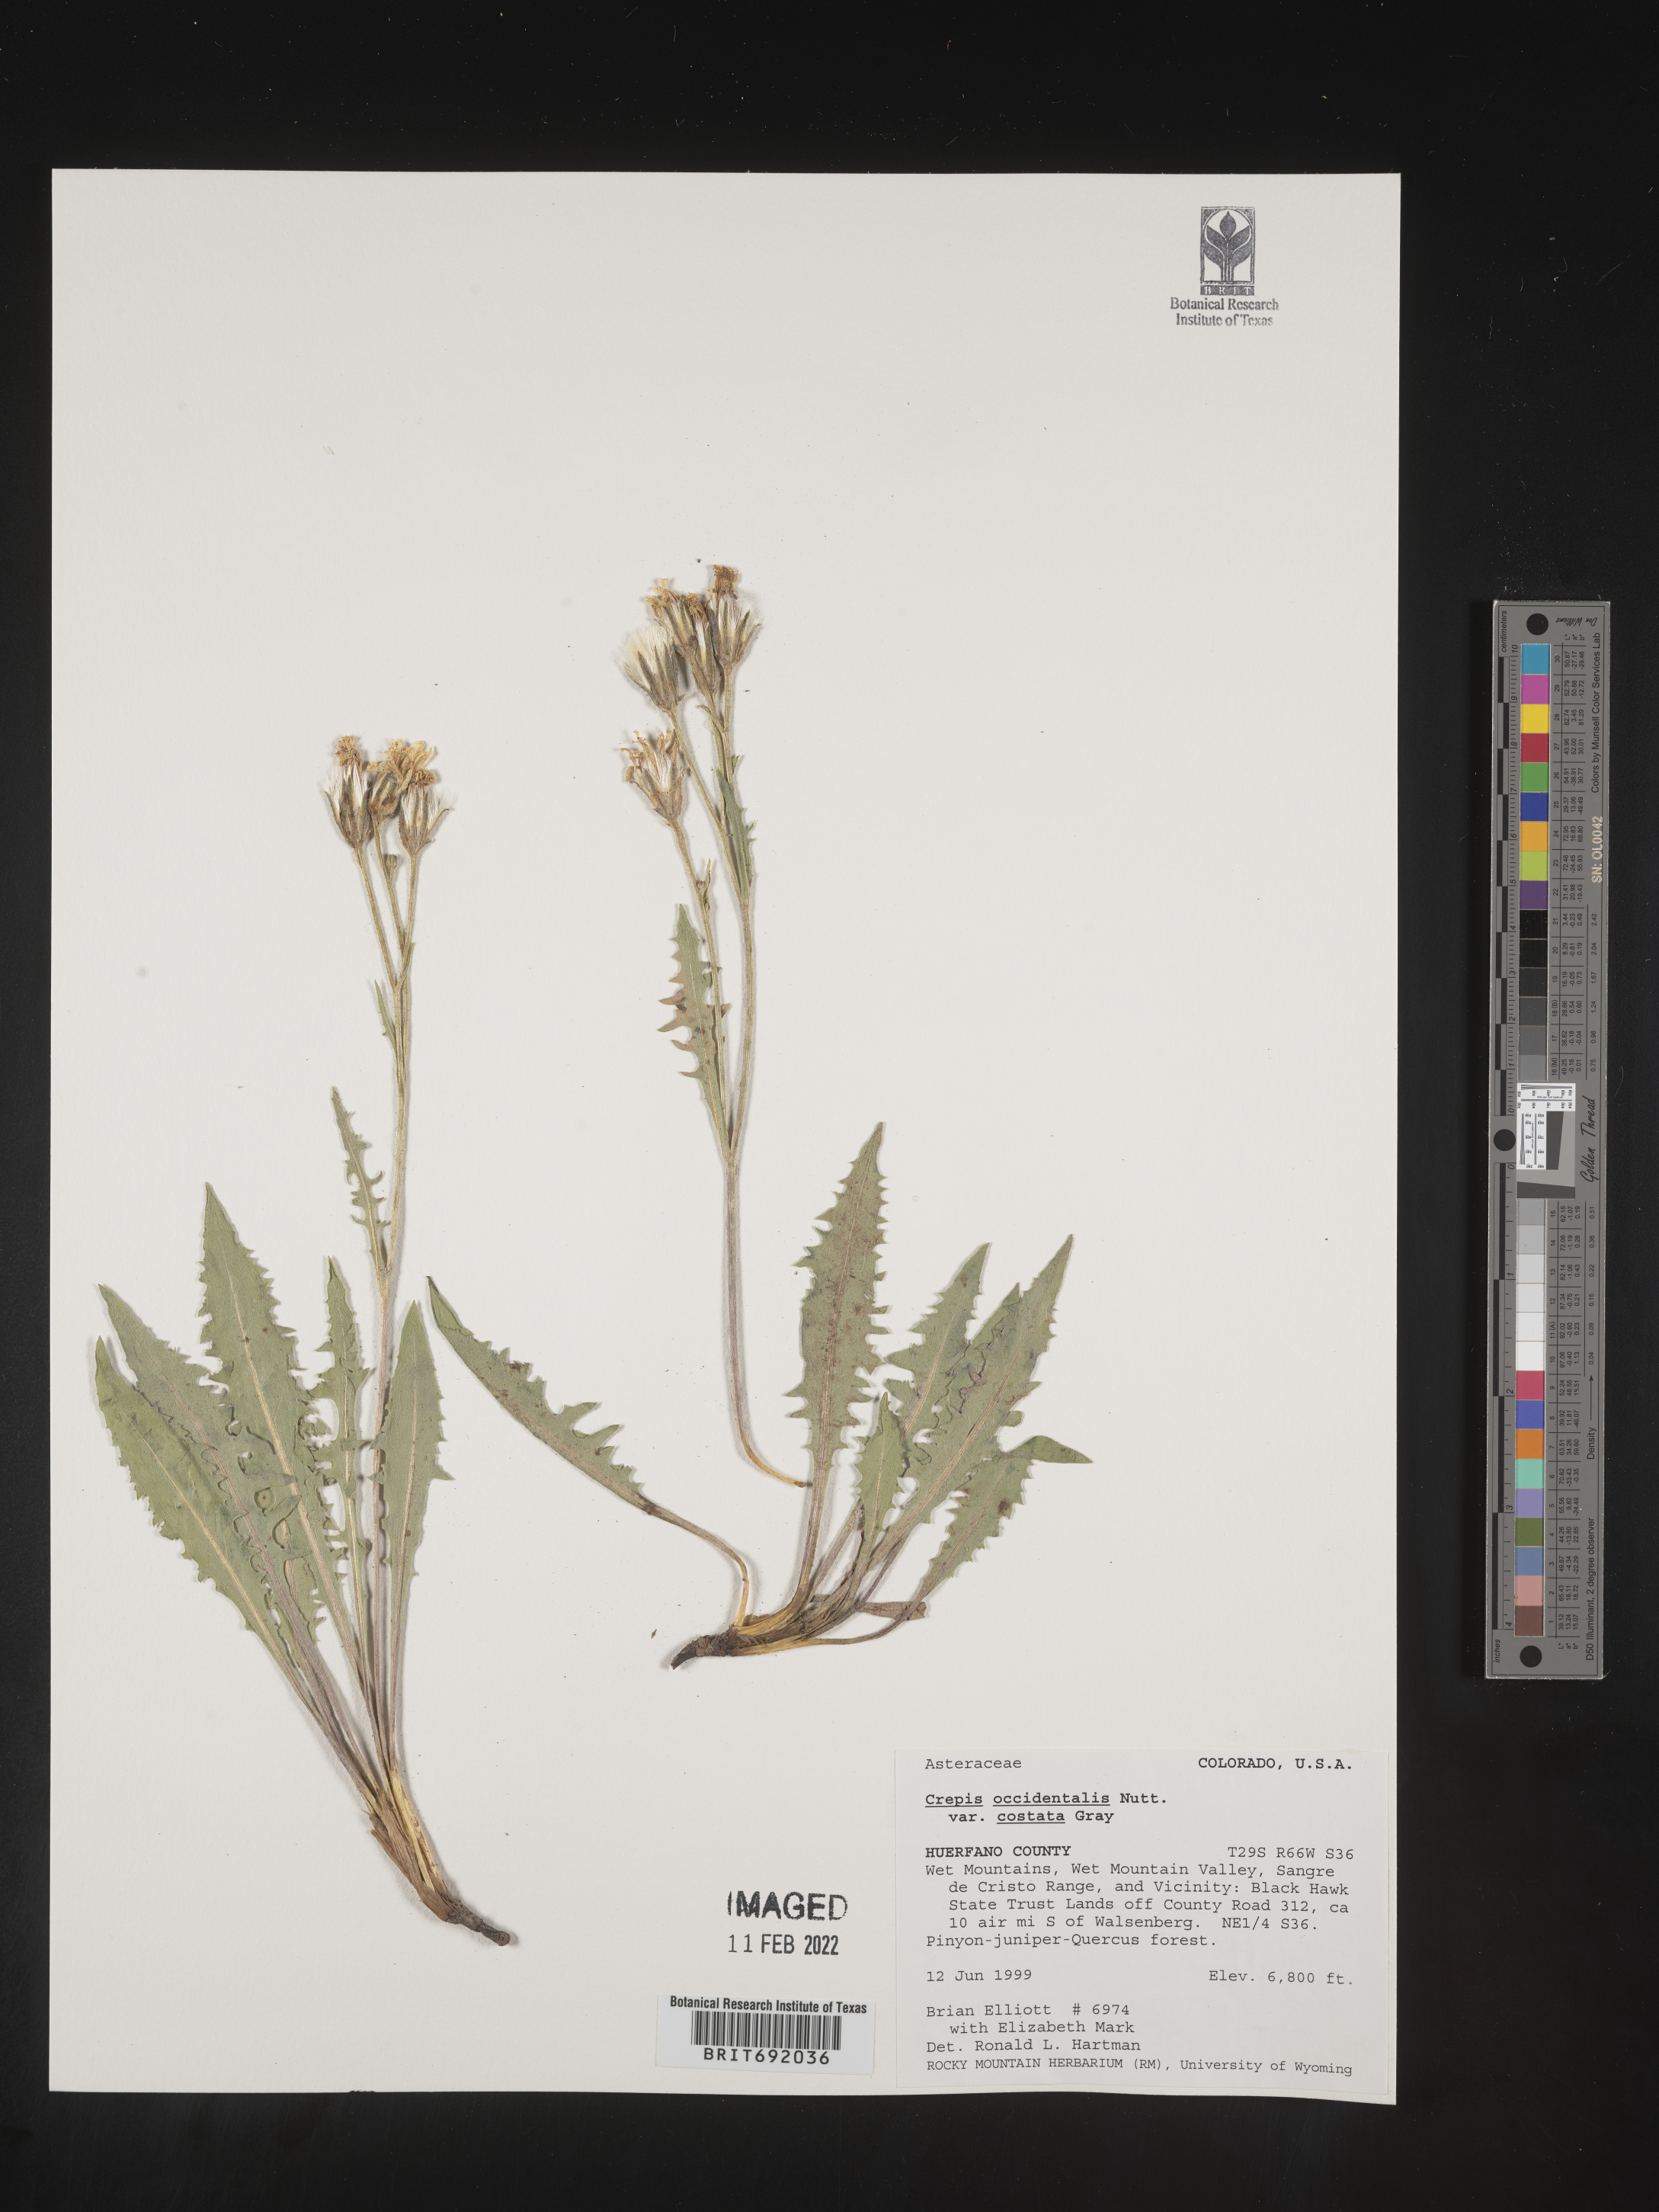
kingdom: Plantae
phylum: Tracheophyta
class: Magnoliopsida
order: Asterales
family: Asteraceae
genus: Crepis
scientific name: Crepis occidentalis
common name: Gray hawk's-beard
